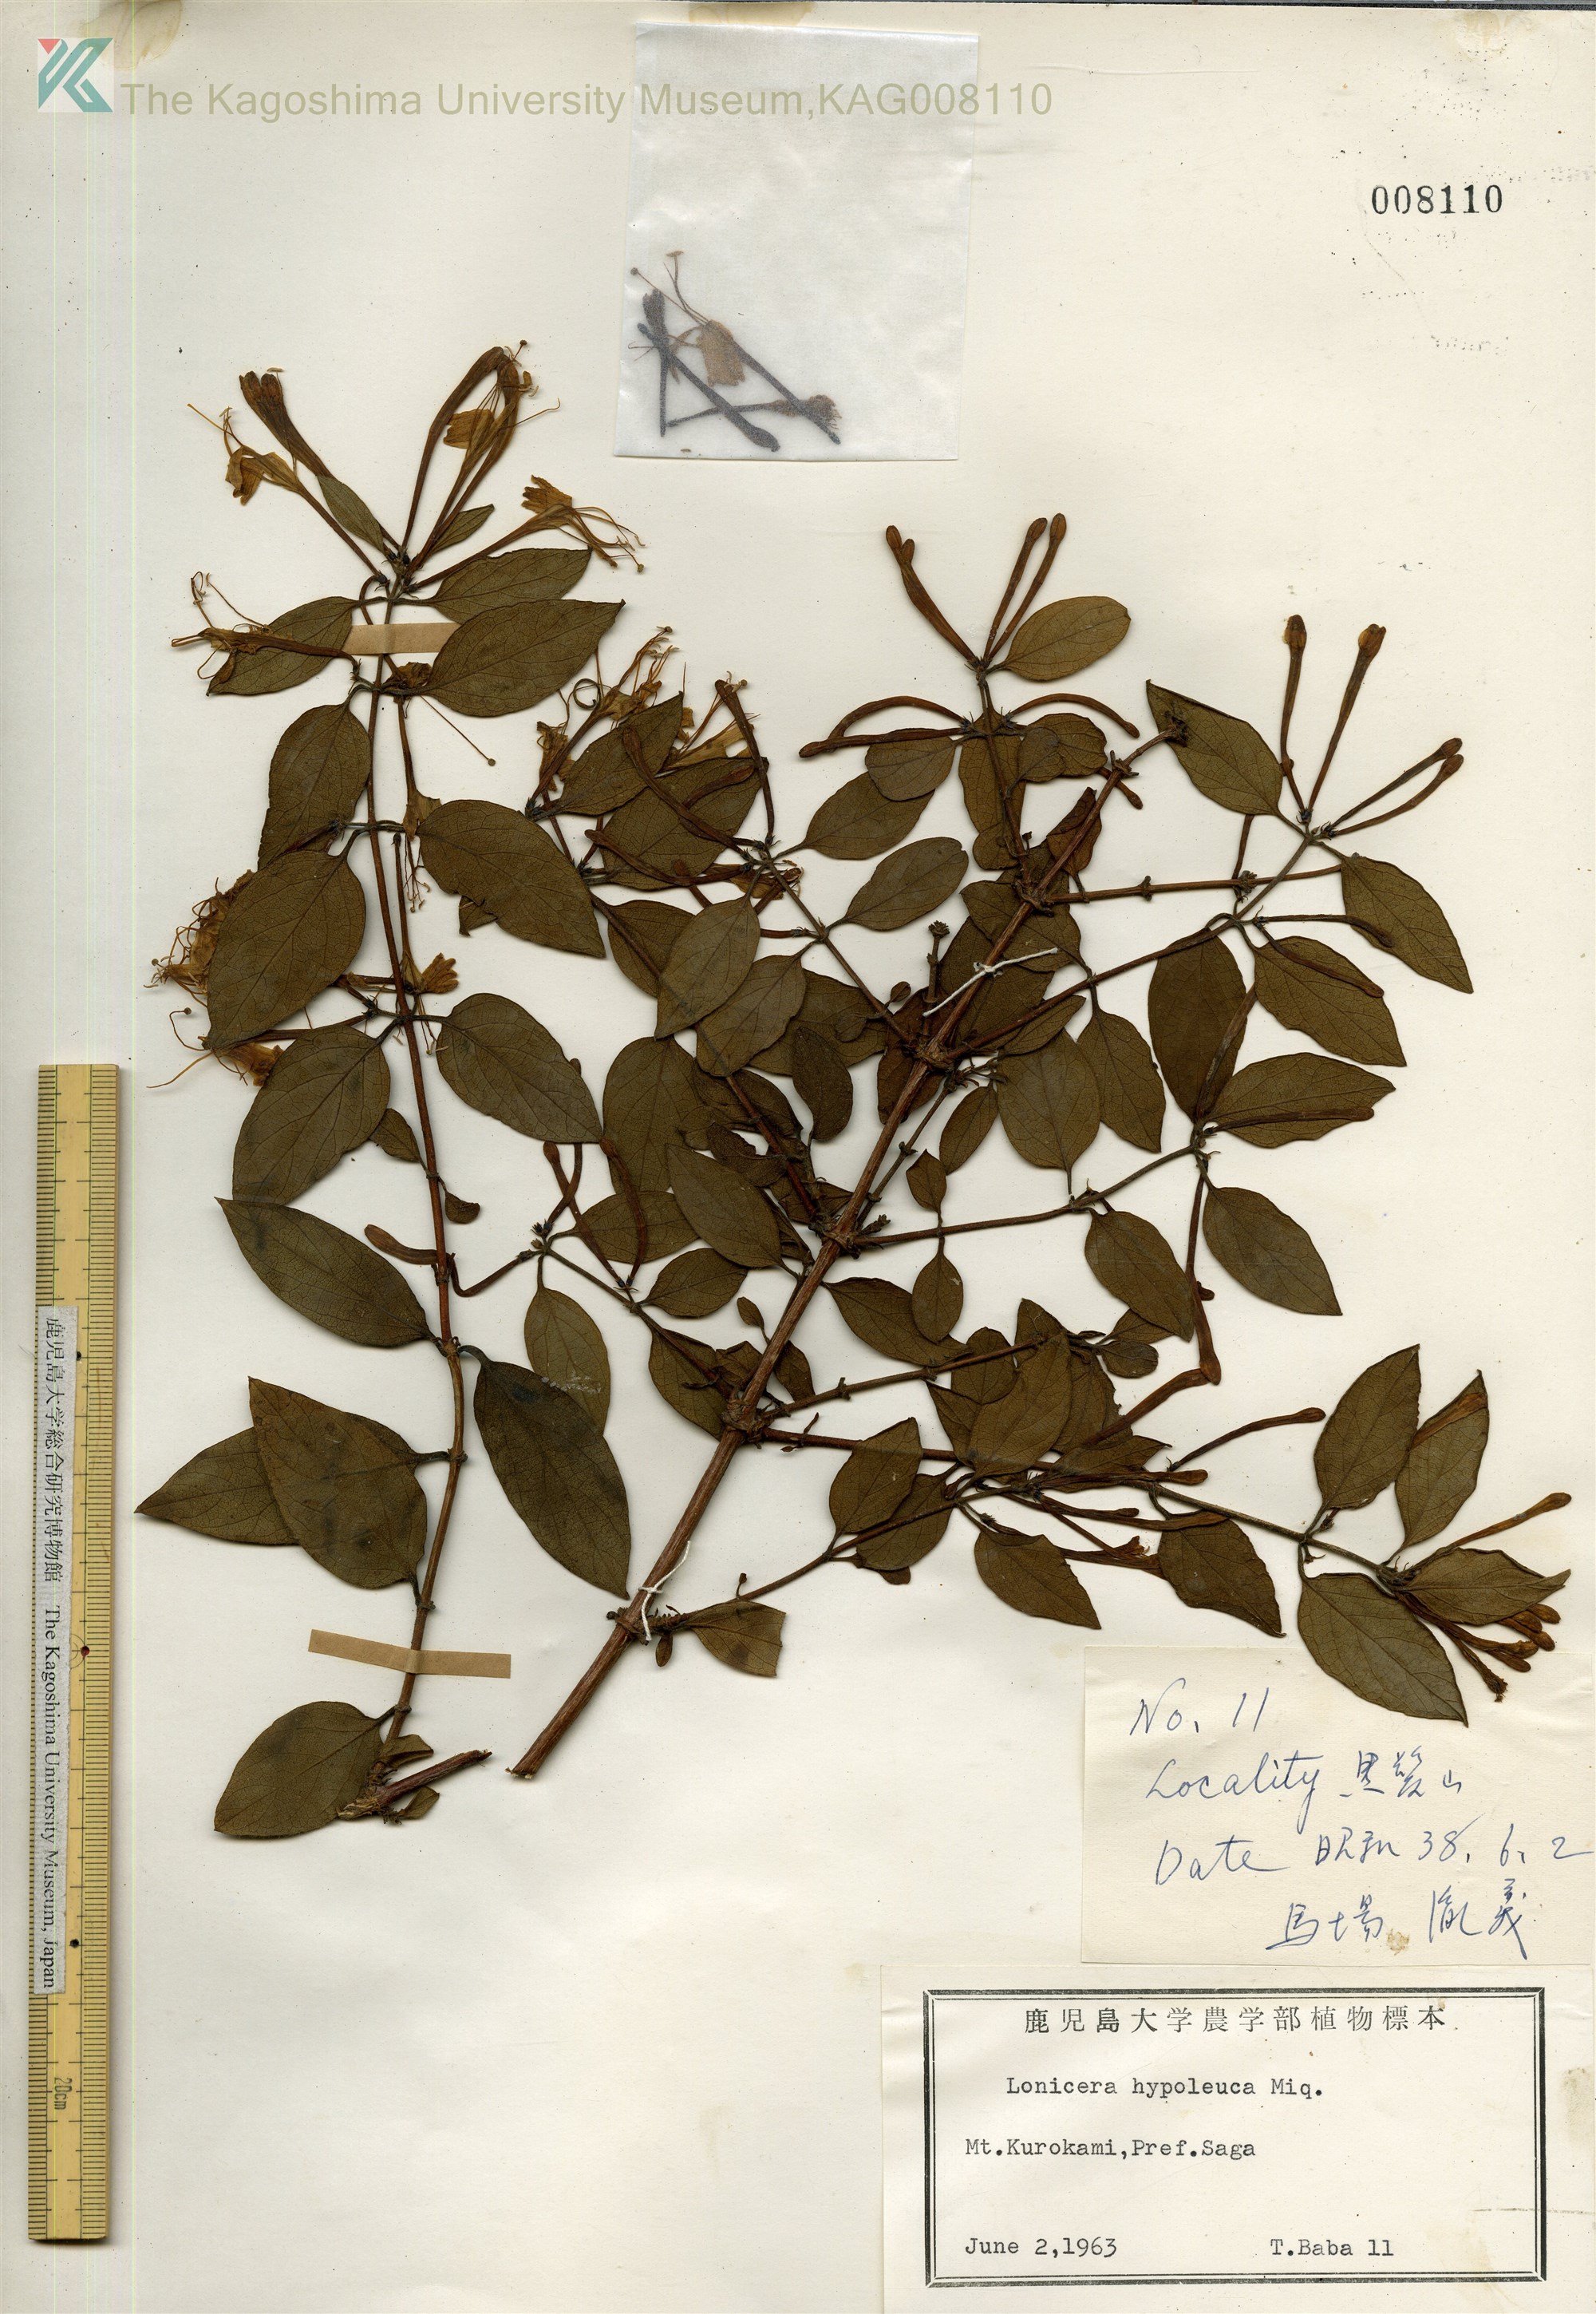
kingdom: Plantae
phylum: Tracheophyta
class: Magnoliopsida
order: Dipsacales
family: Caprifoliaceae
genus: Lonicera
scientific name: Lonicera hypoglauca
